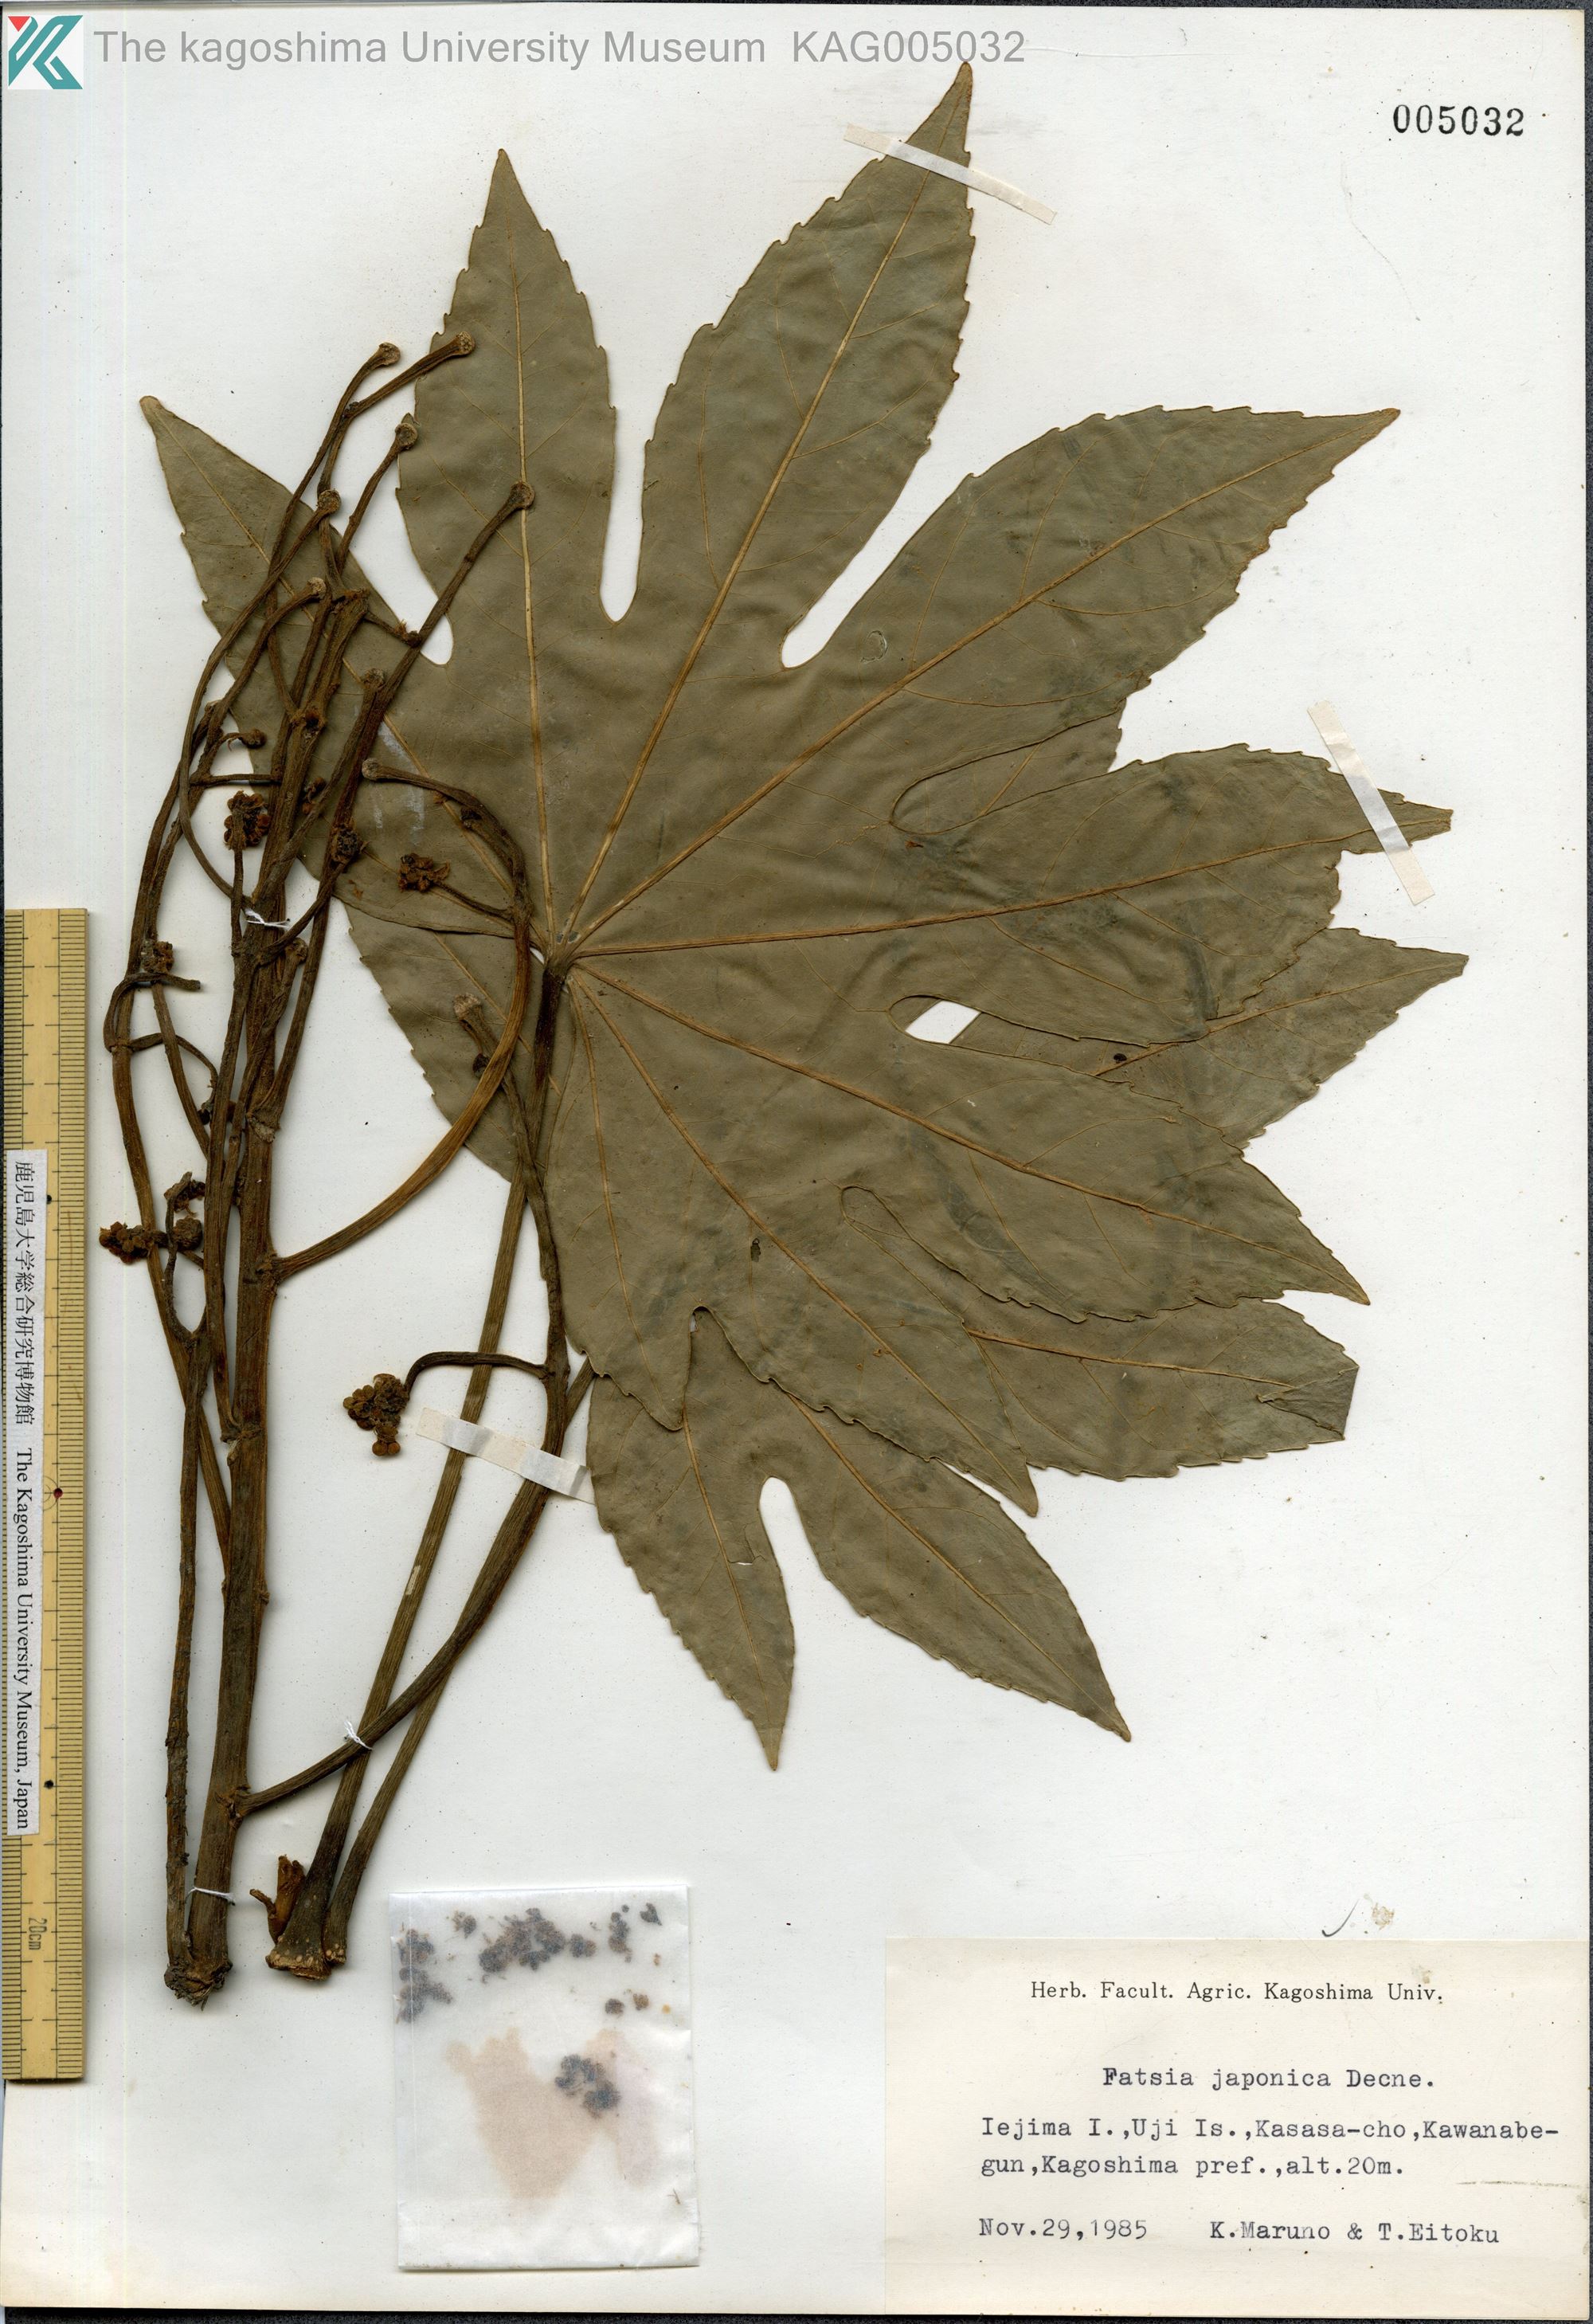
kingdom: Plantae
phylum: Tracheophyta
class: Magnoliopsida
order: Apiales
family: Araliaceae
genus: Fatsia
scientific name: Fatsia japonica
